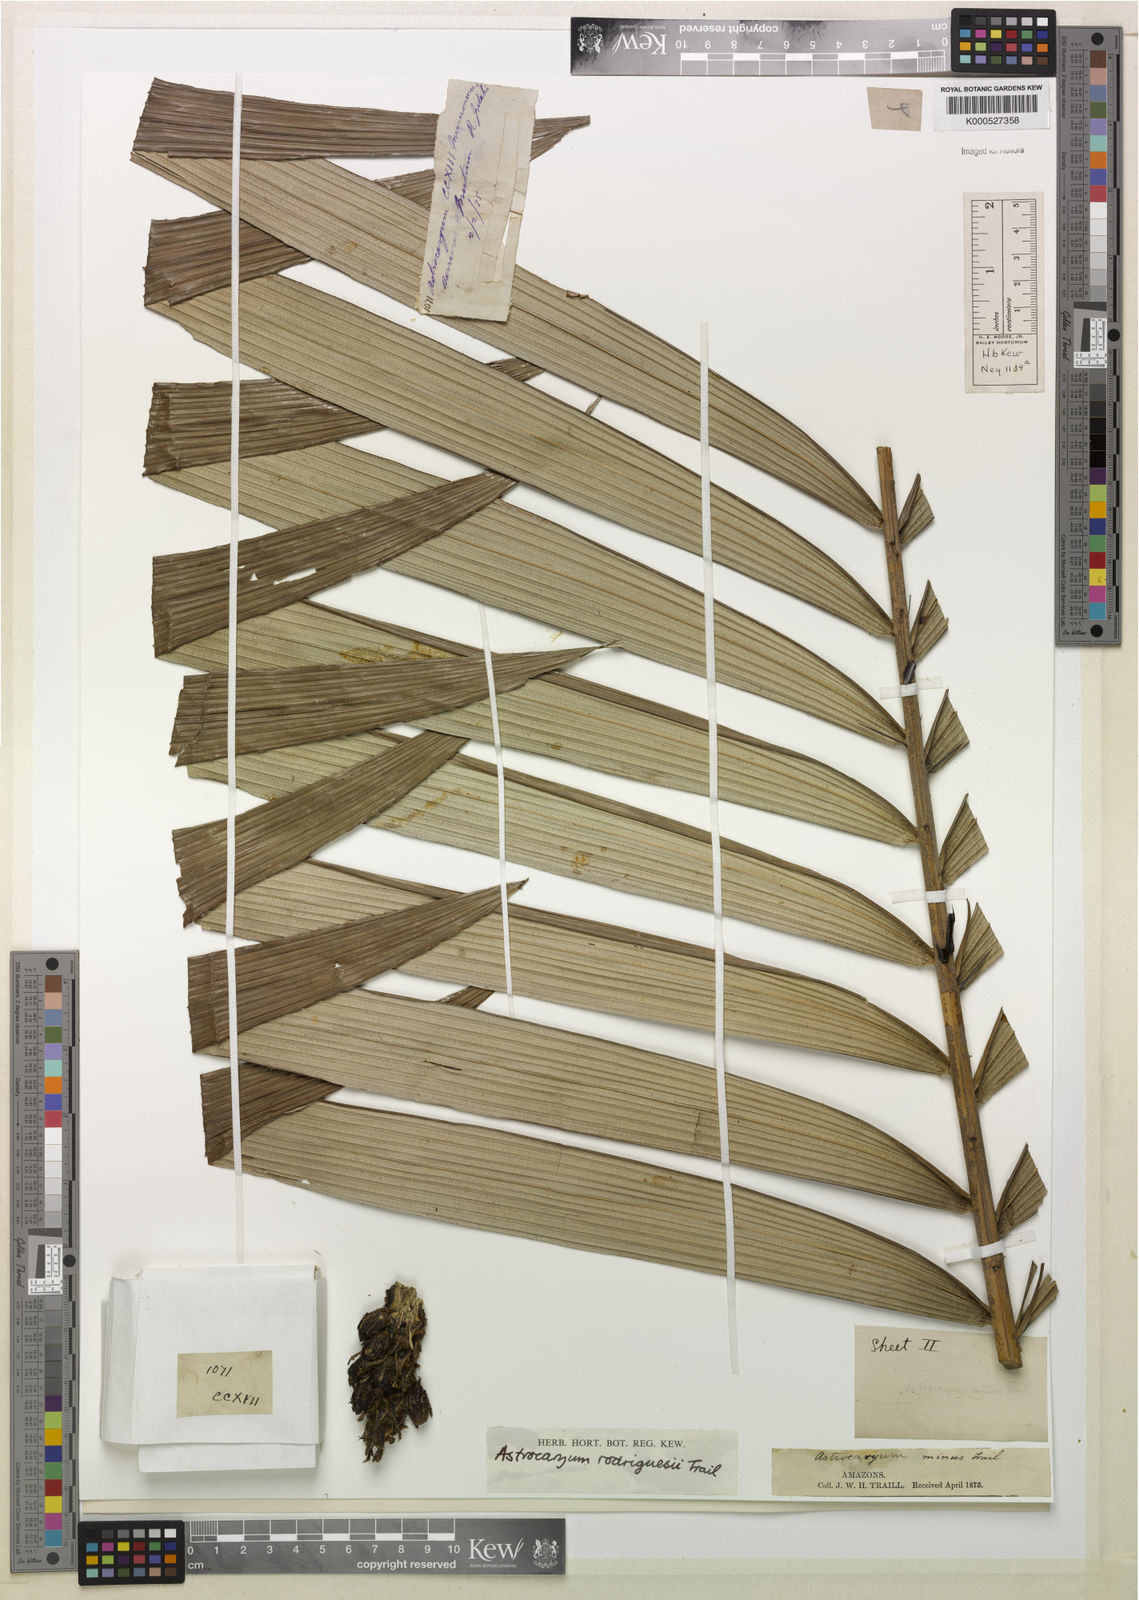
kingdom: Plantae
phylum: Tracheophyta
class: Liliopsida
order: Arecales
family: Arecaceae
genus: Astrocaryum
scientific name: Astrocaryum rodriguesii
